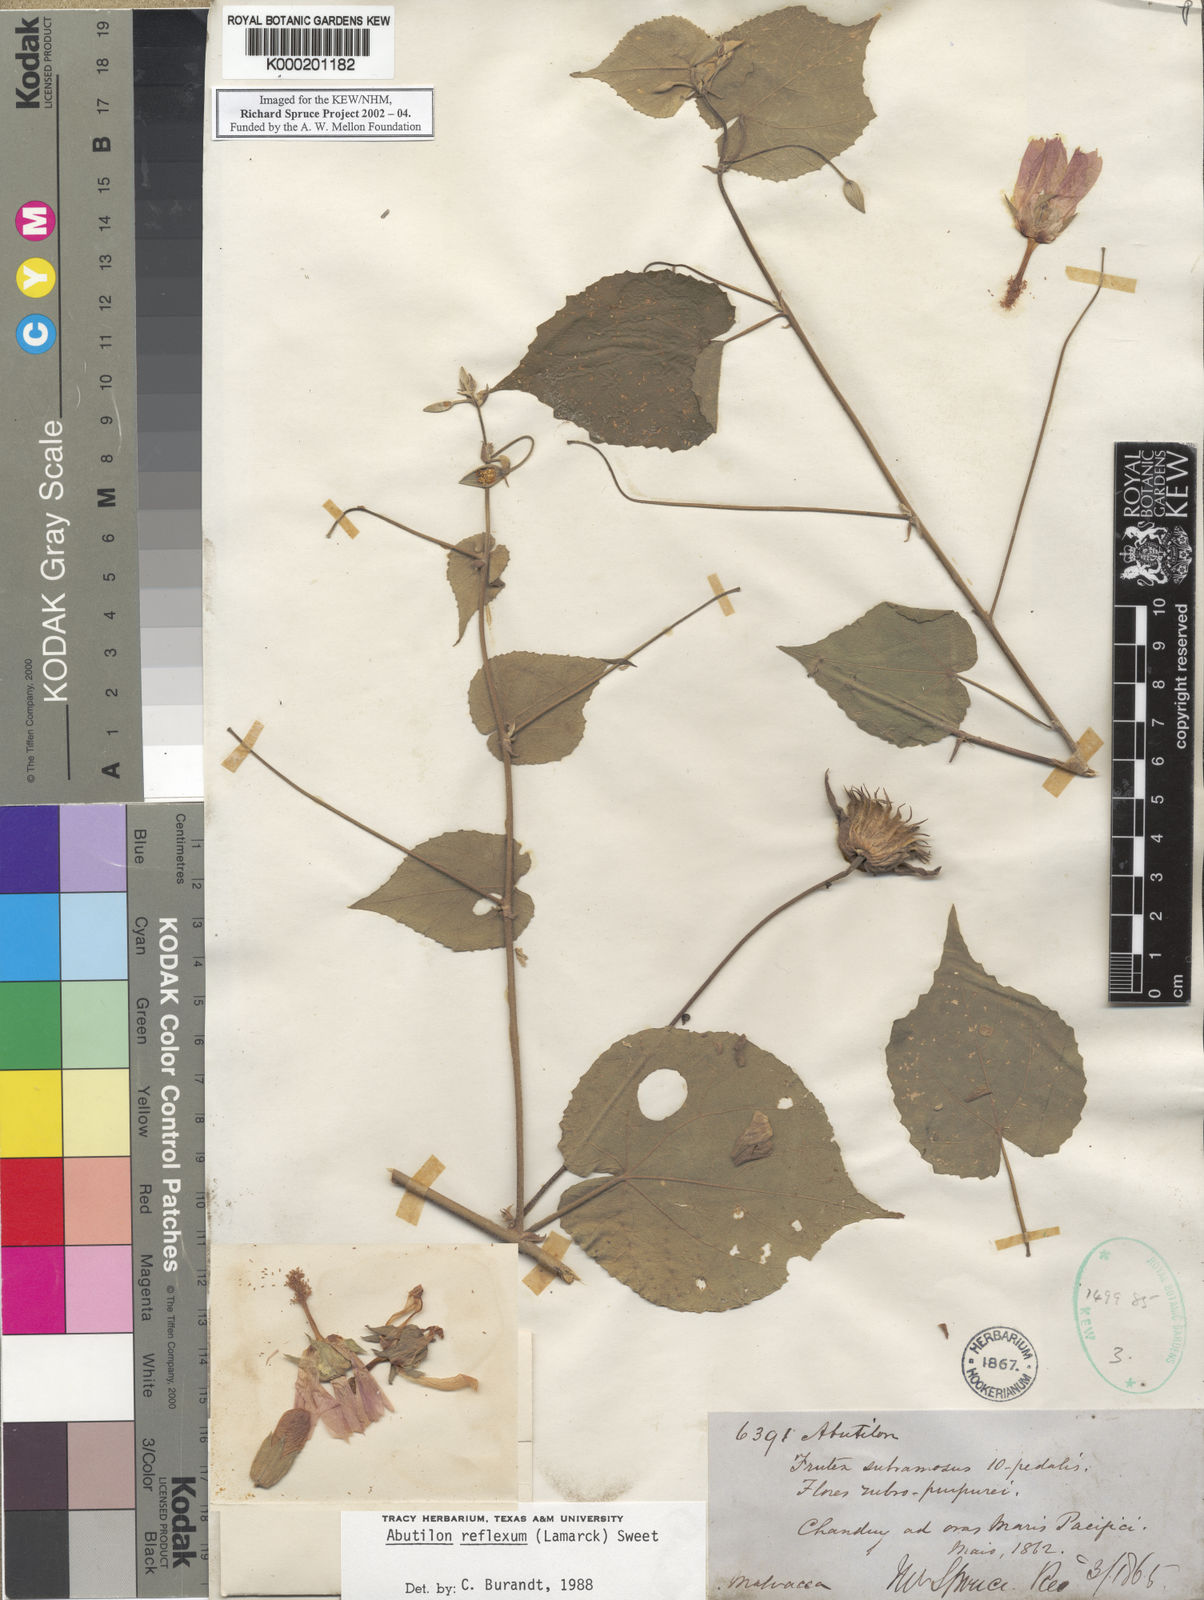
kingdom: Plantae
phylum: Tracheophyta
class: Magnoliopsida
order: Malvales
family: Malvaceae
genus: Abutilon
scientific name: Abutilon reflexum
